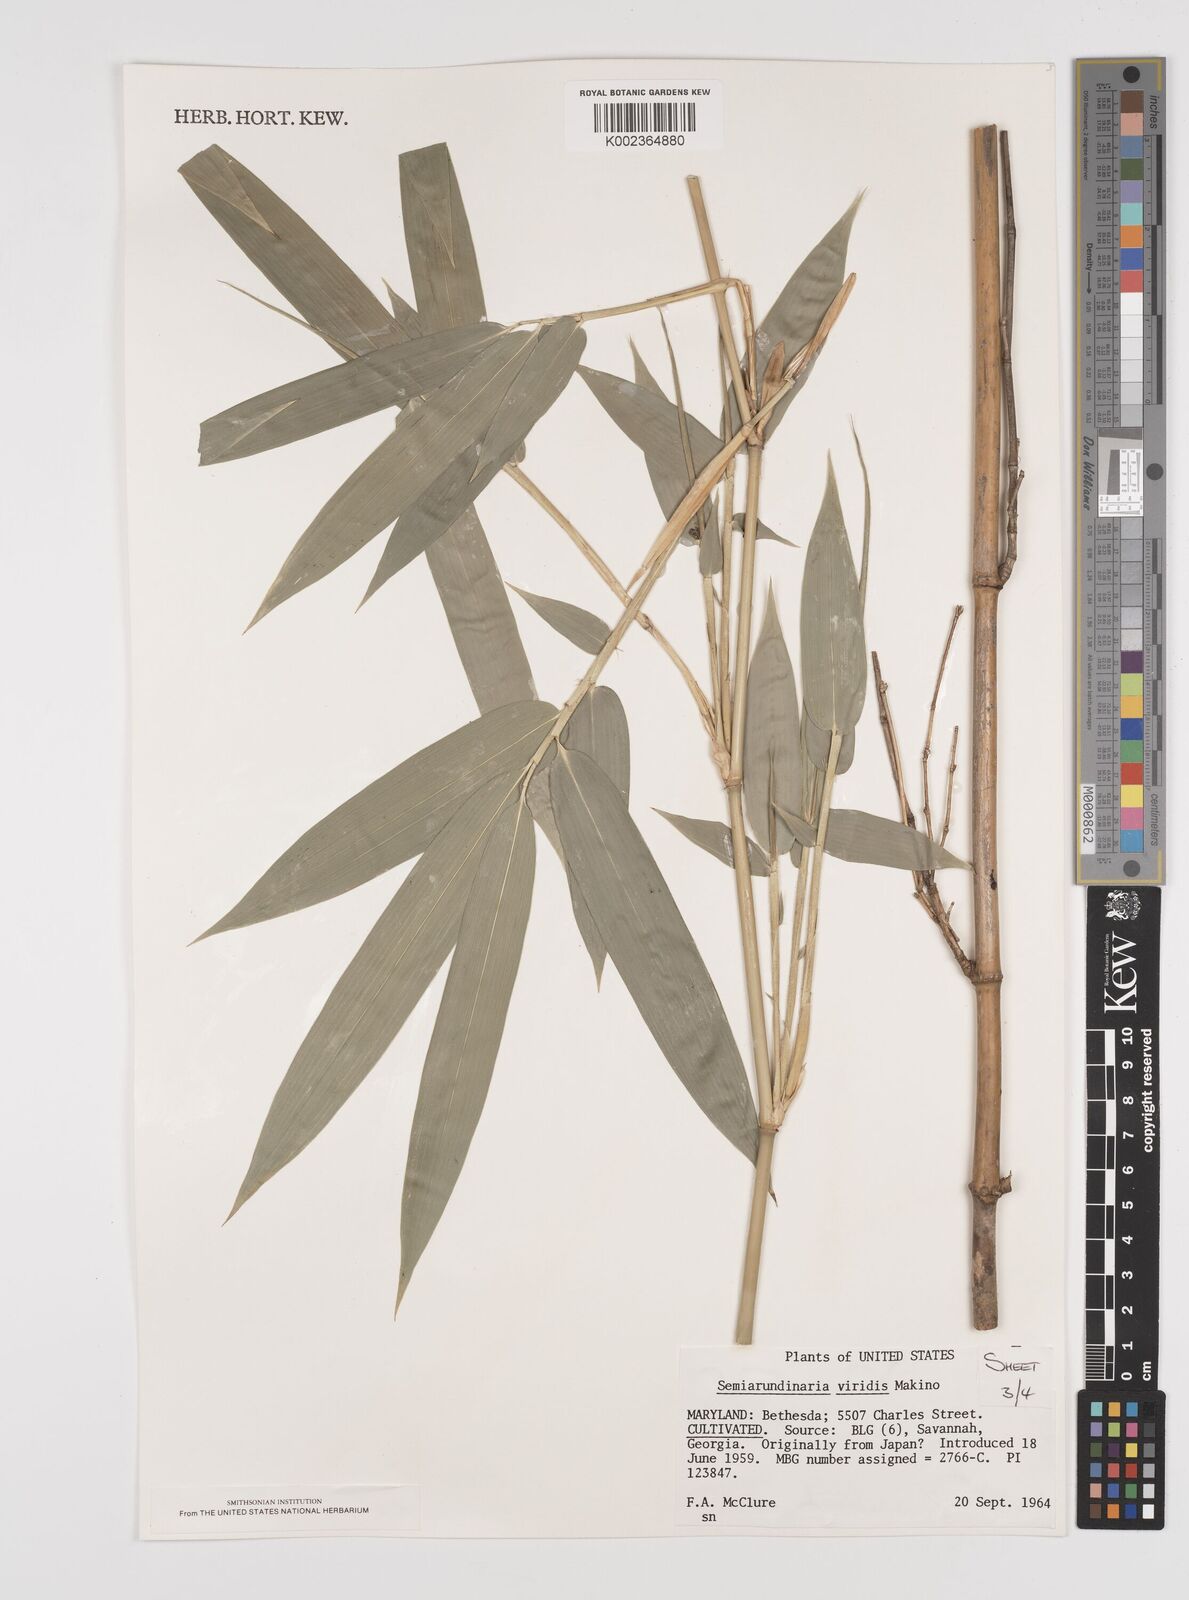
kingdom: Plantae
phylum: Tracheophyta
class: Liliopsida
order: Poales
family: Poaceae
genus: Semiarundinaria
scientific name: Semiarundinaria fastuosa
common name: Narihira bamboo
